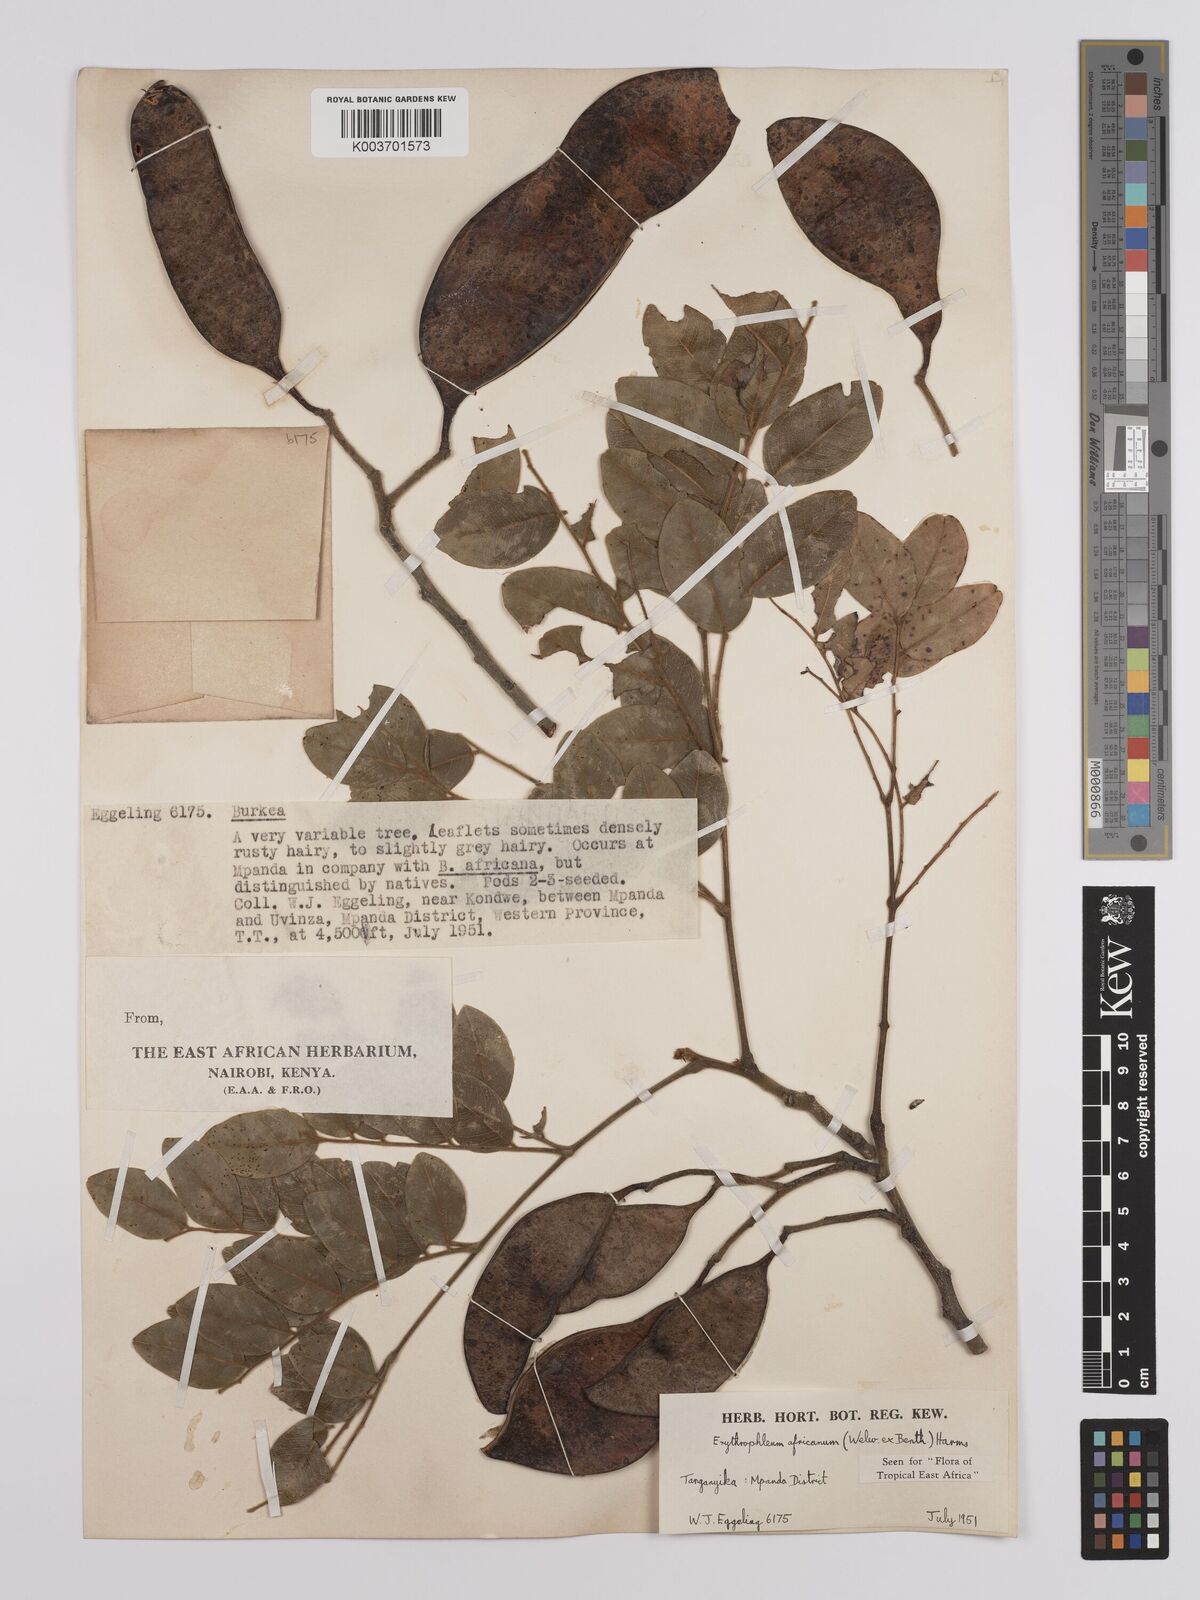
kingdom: Plantae
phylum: Tracheophyta
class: Magnoliopsida
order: Fabales
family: Fabaceae
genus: Erythrophleum
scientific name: Erythrophleum africanum
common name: African blackwood
